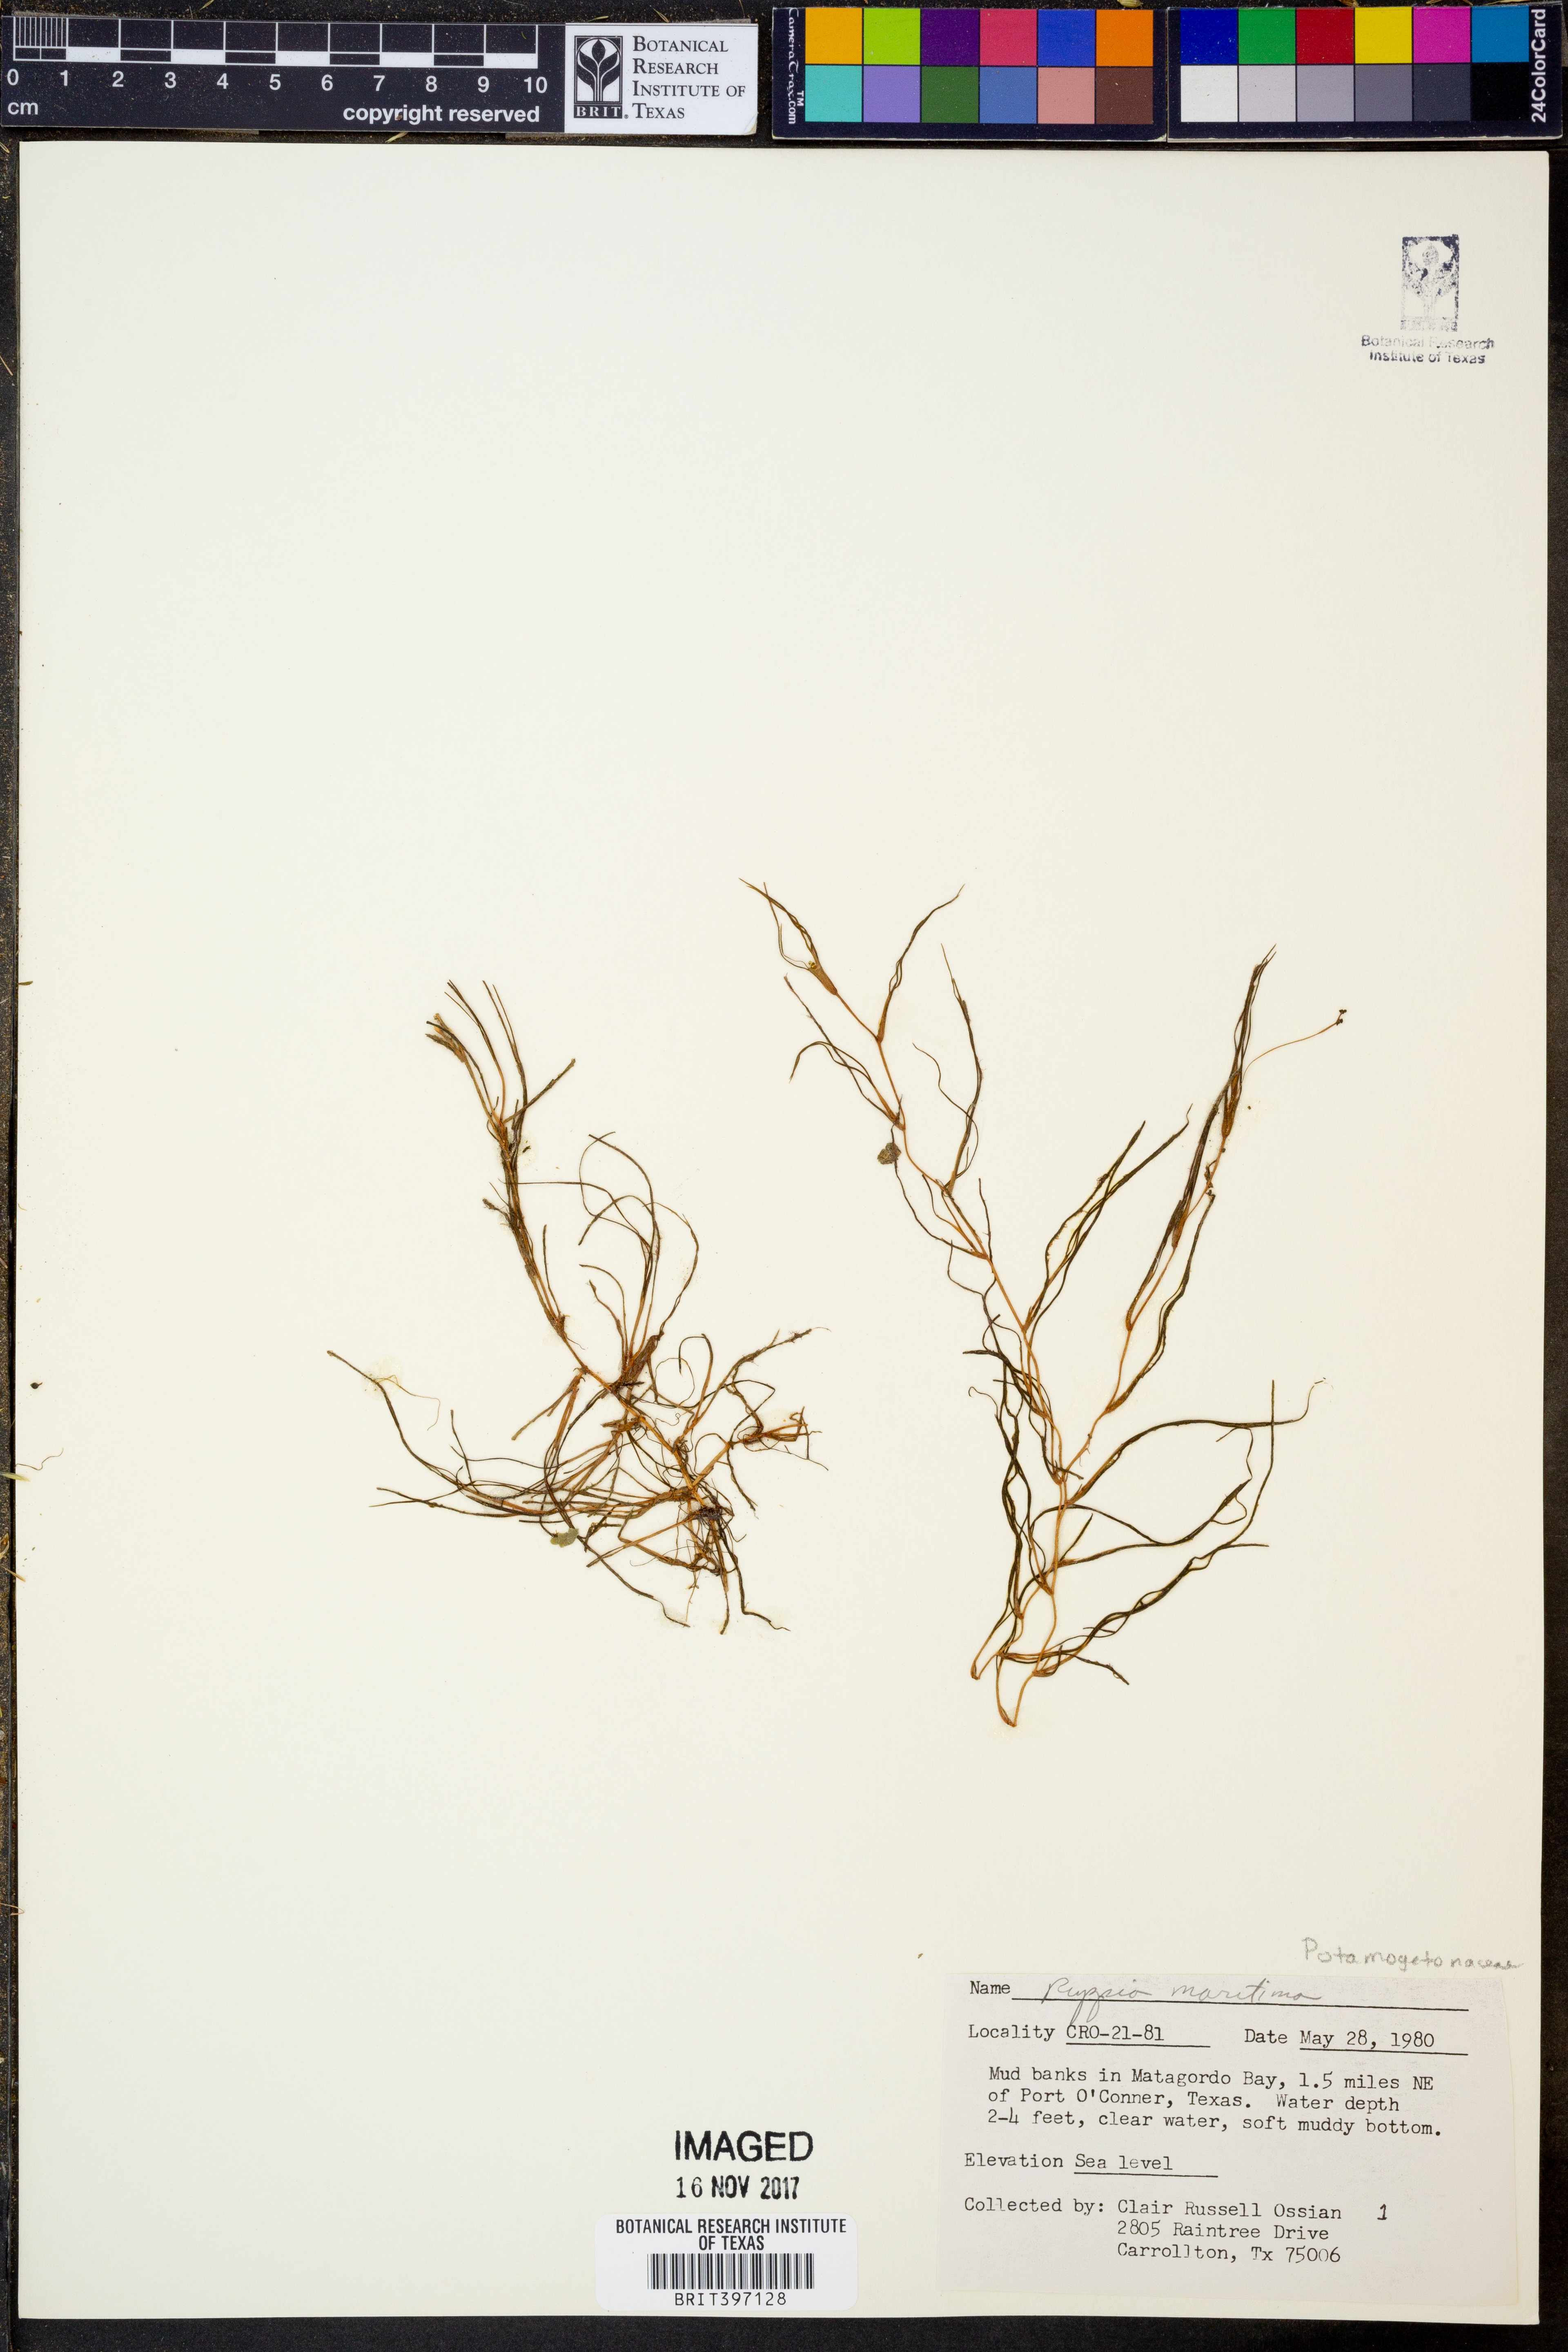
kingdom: Plantae
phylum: Tracheophyta
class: Liliopsida
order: Alismatales
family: Ruppiaceae
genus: Ruppia
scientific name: Ruppia maritima
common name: Beaked tasselweed
